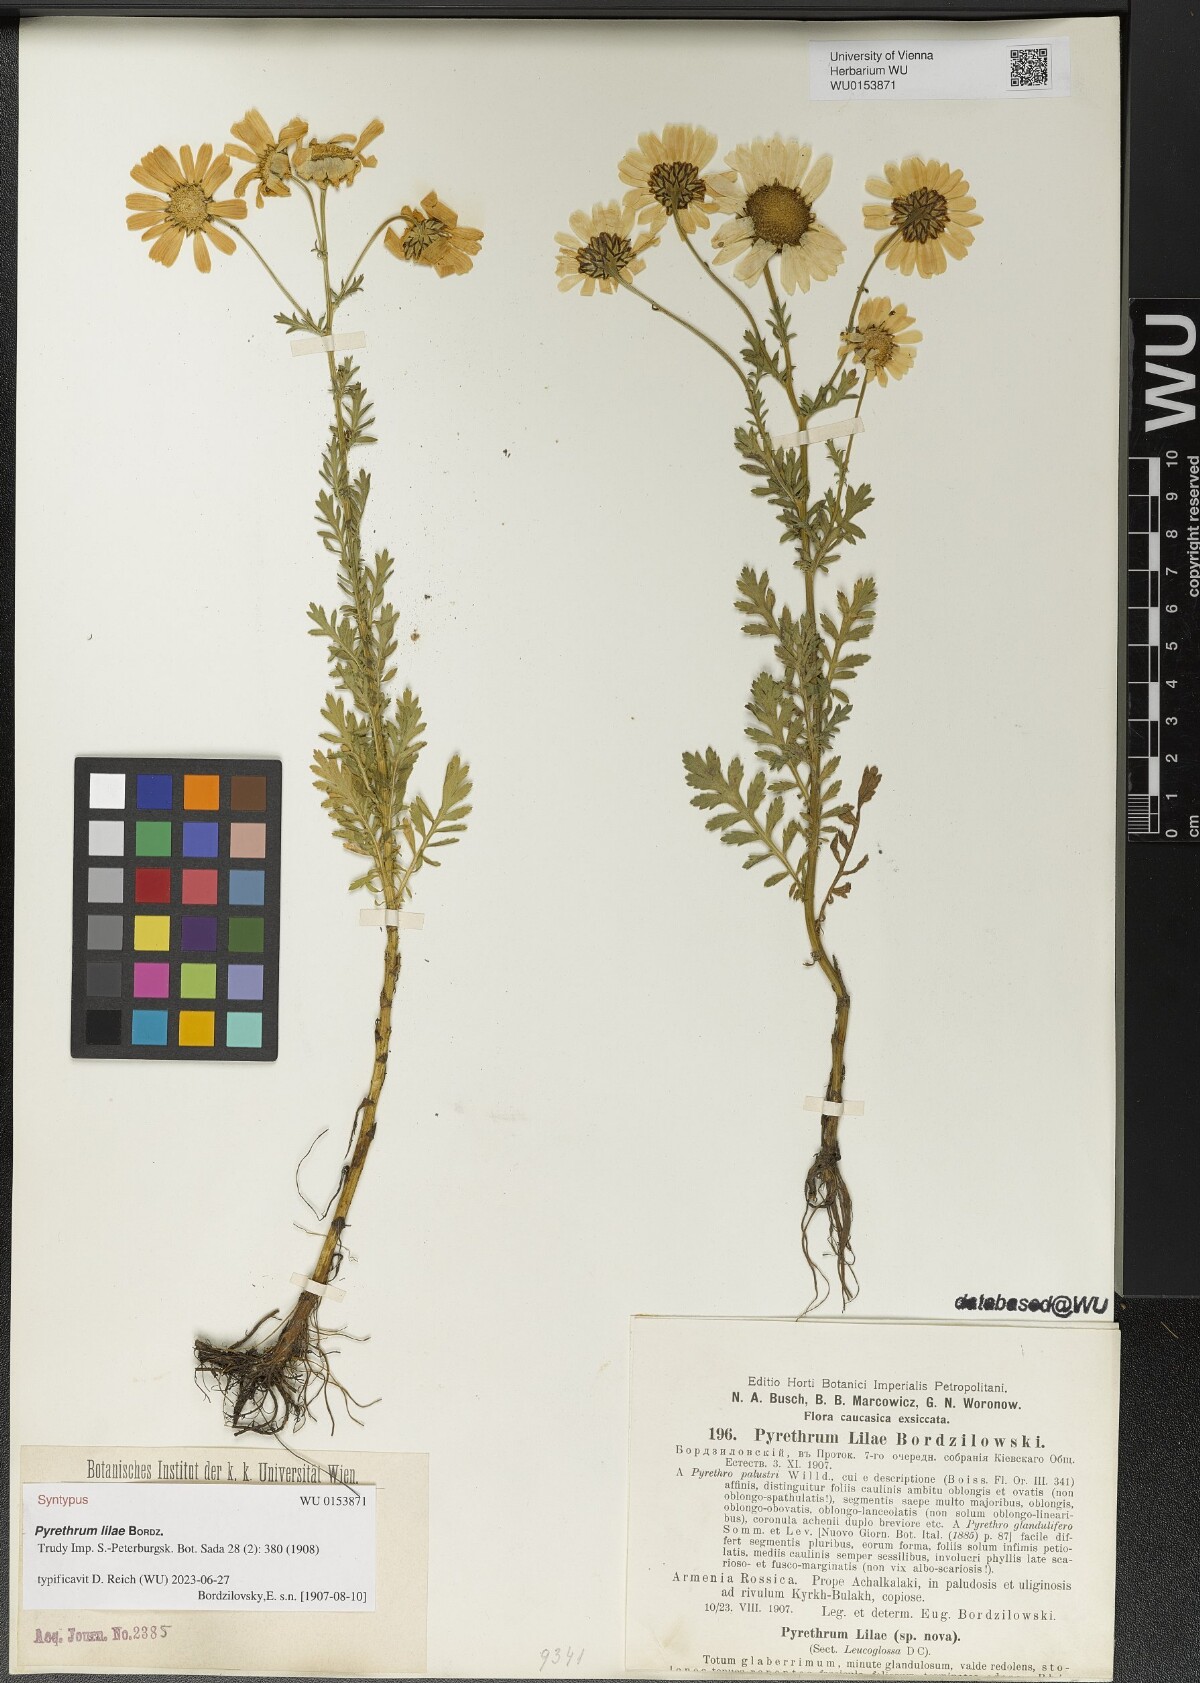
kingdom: Plantae
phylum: Tracheophyta
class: Magnoliopsida
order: Asterales
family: Asteraceae
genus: Tanacetum
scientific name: Tanacetum Pyrethrum lilae
